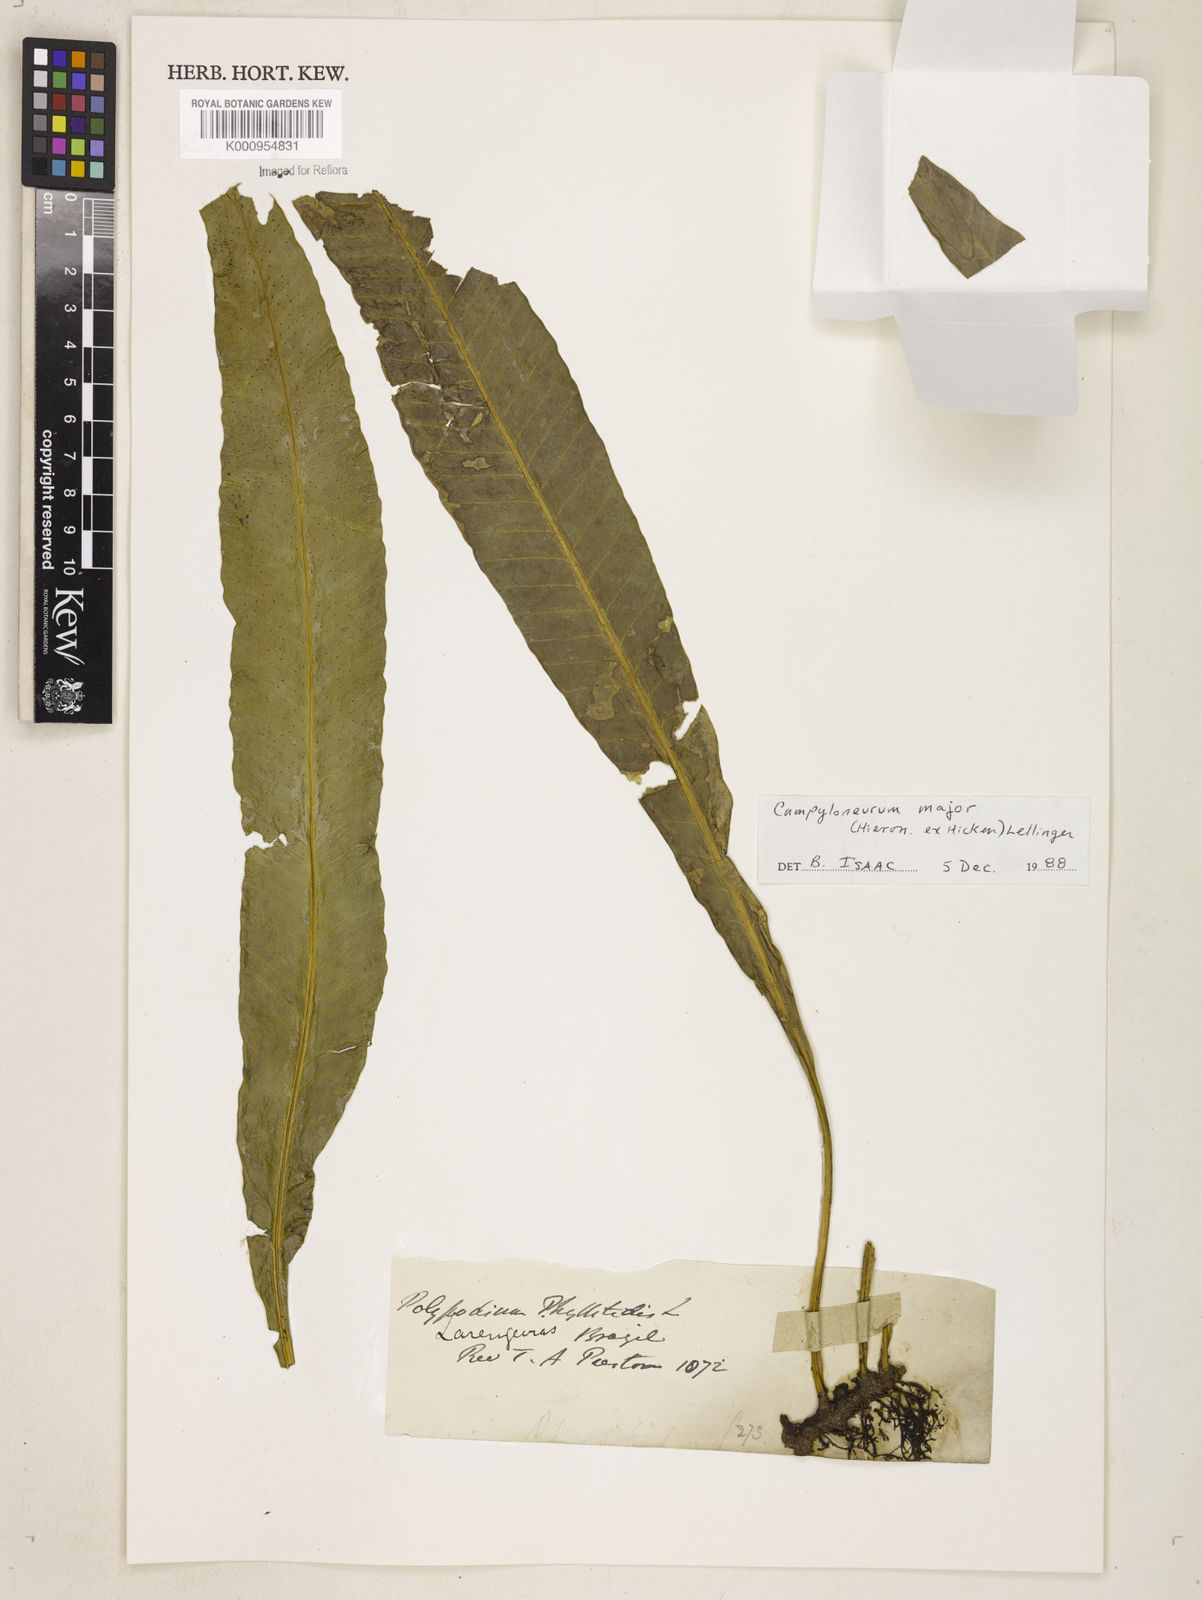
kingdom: Plantae
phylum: Tracheophyta
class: Polypodiopsida
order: Polypodiales
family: Polypodiaceae
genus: Campyloneurum
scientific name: Campyloneurum majus
